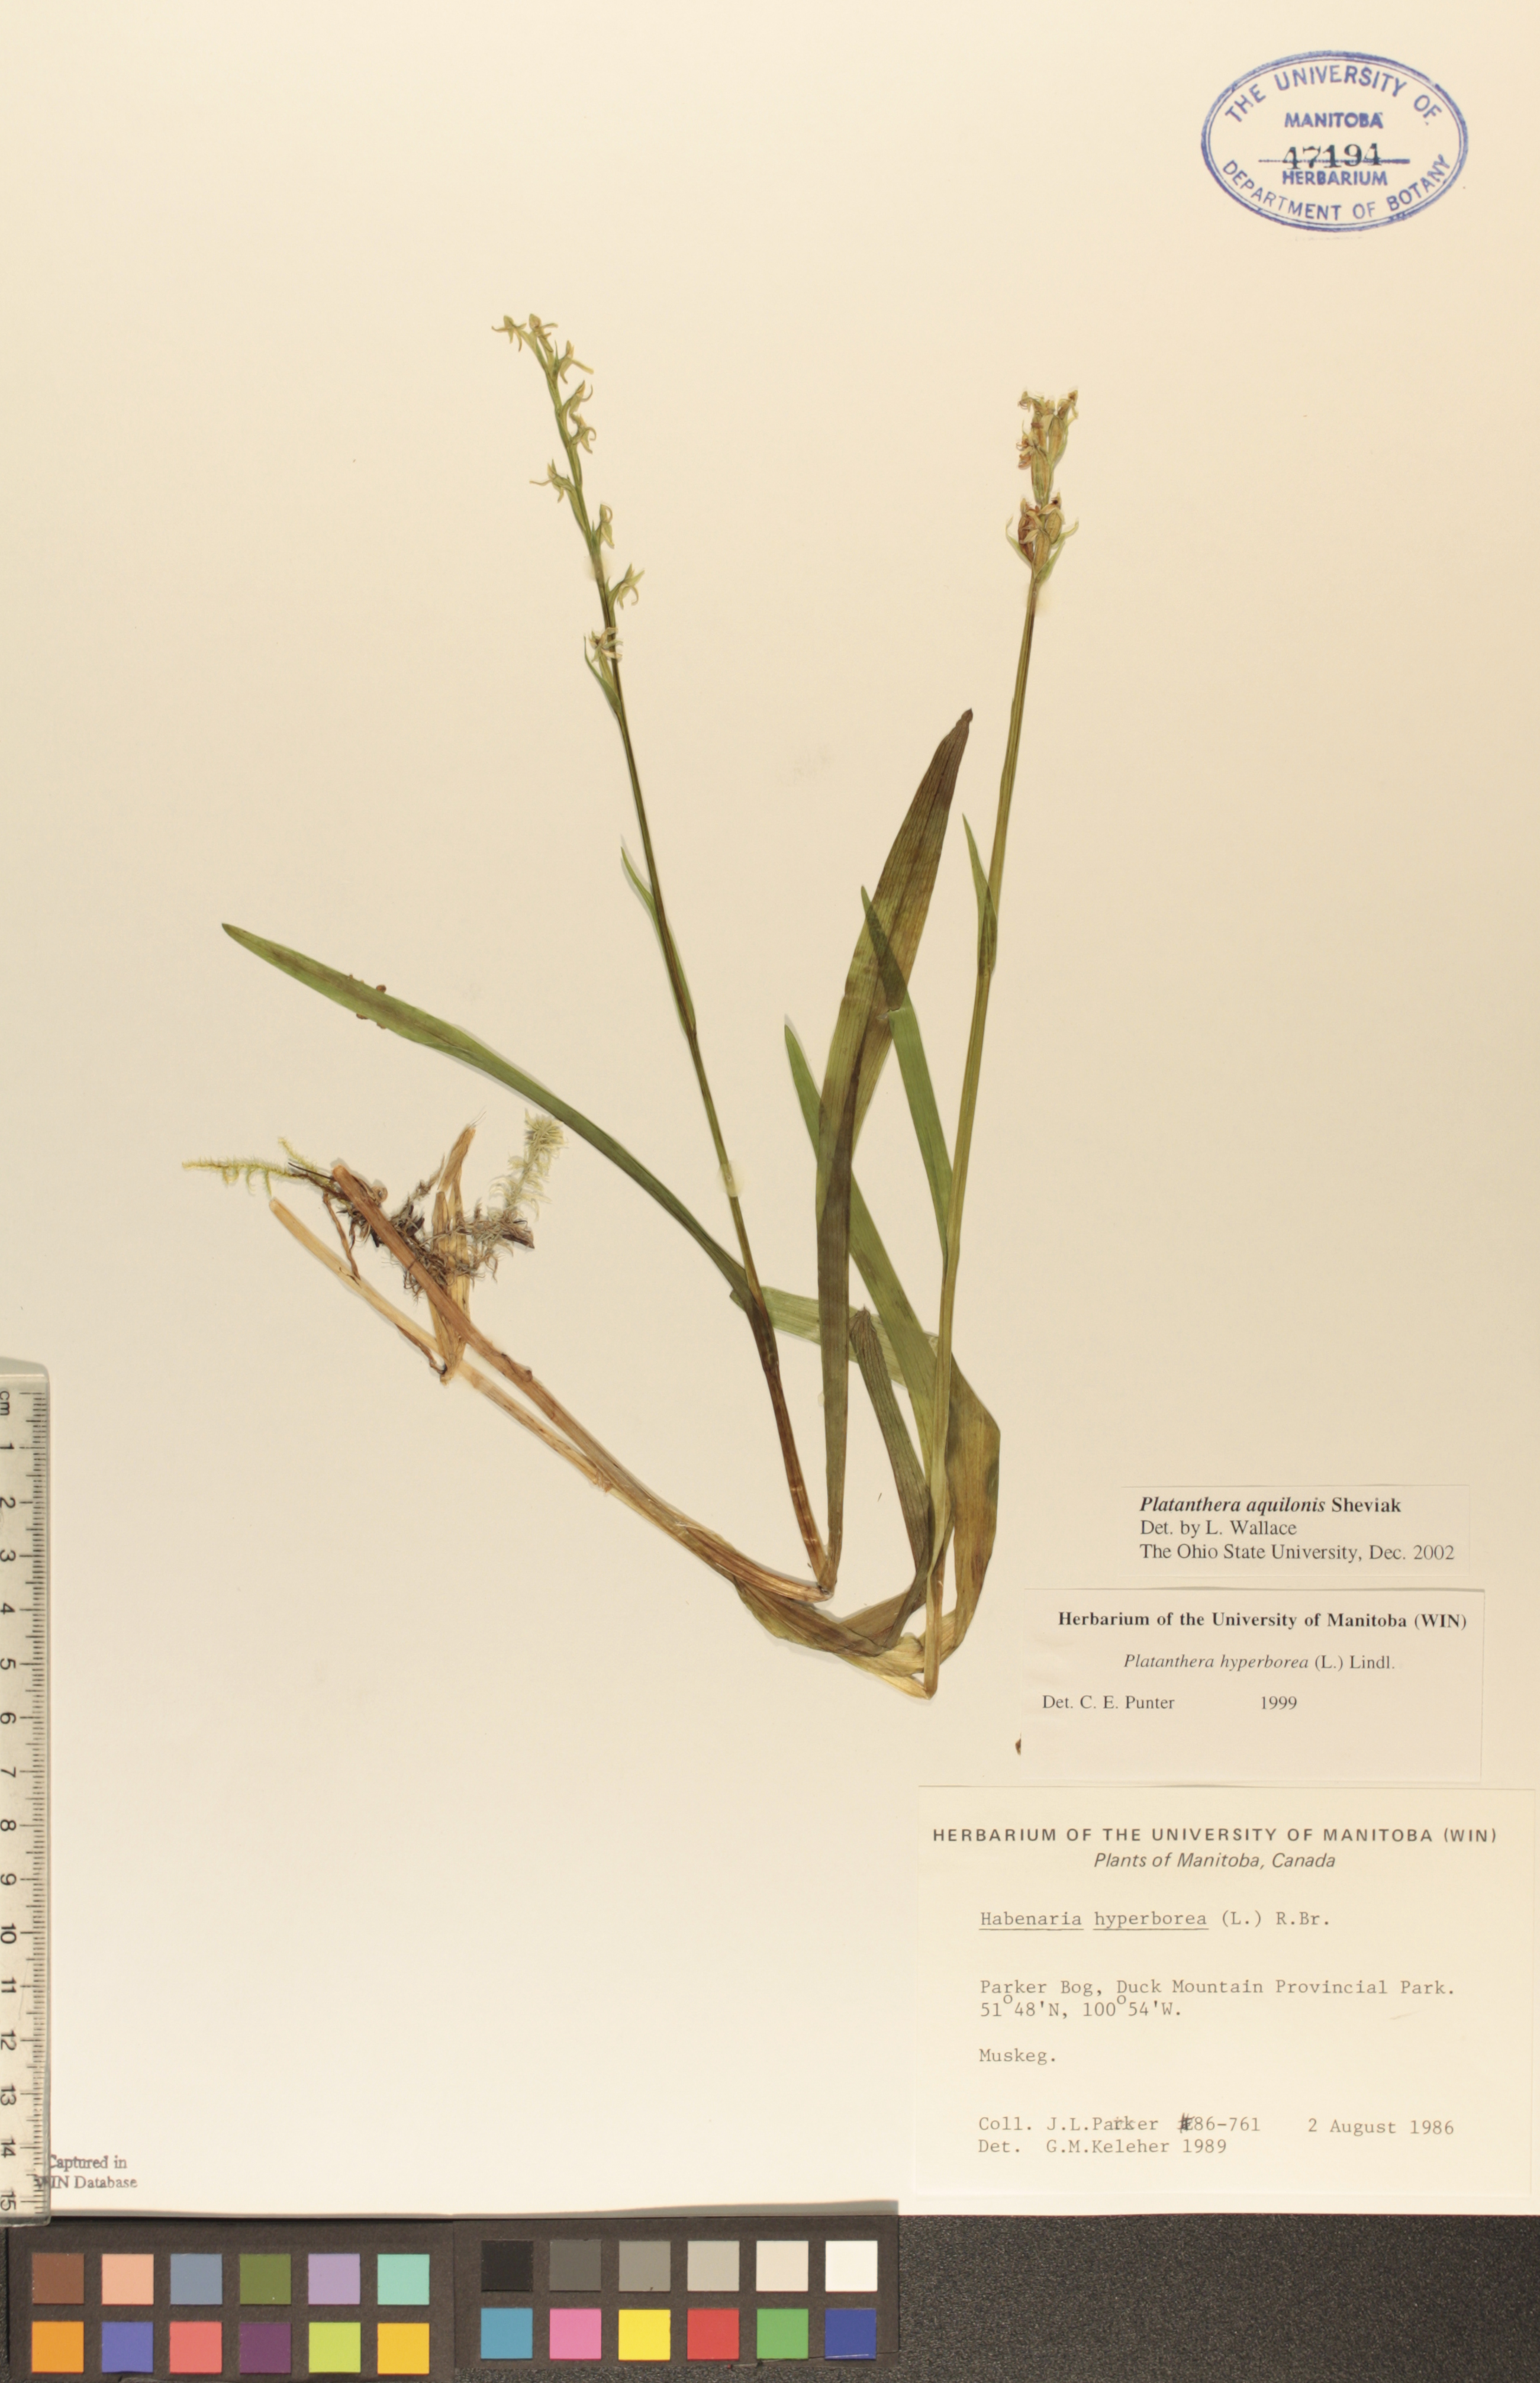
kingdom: Plantae
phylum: Tracheophyta
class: Liliopsida
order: Asparagales
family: Orchidaceae
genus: Platanthera
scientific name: Platanthera aquilonis
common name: Northern green orchid
